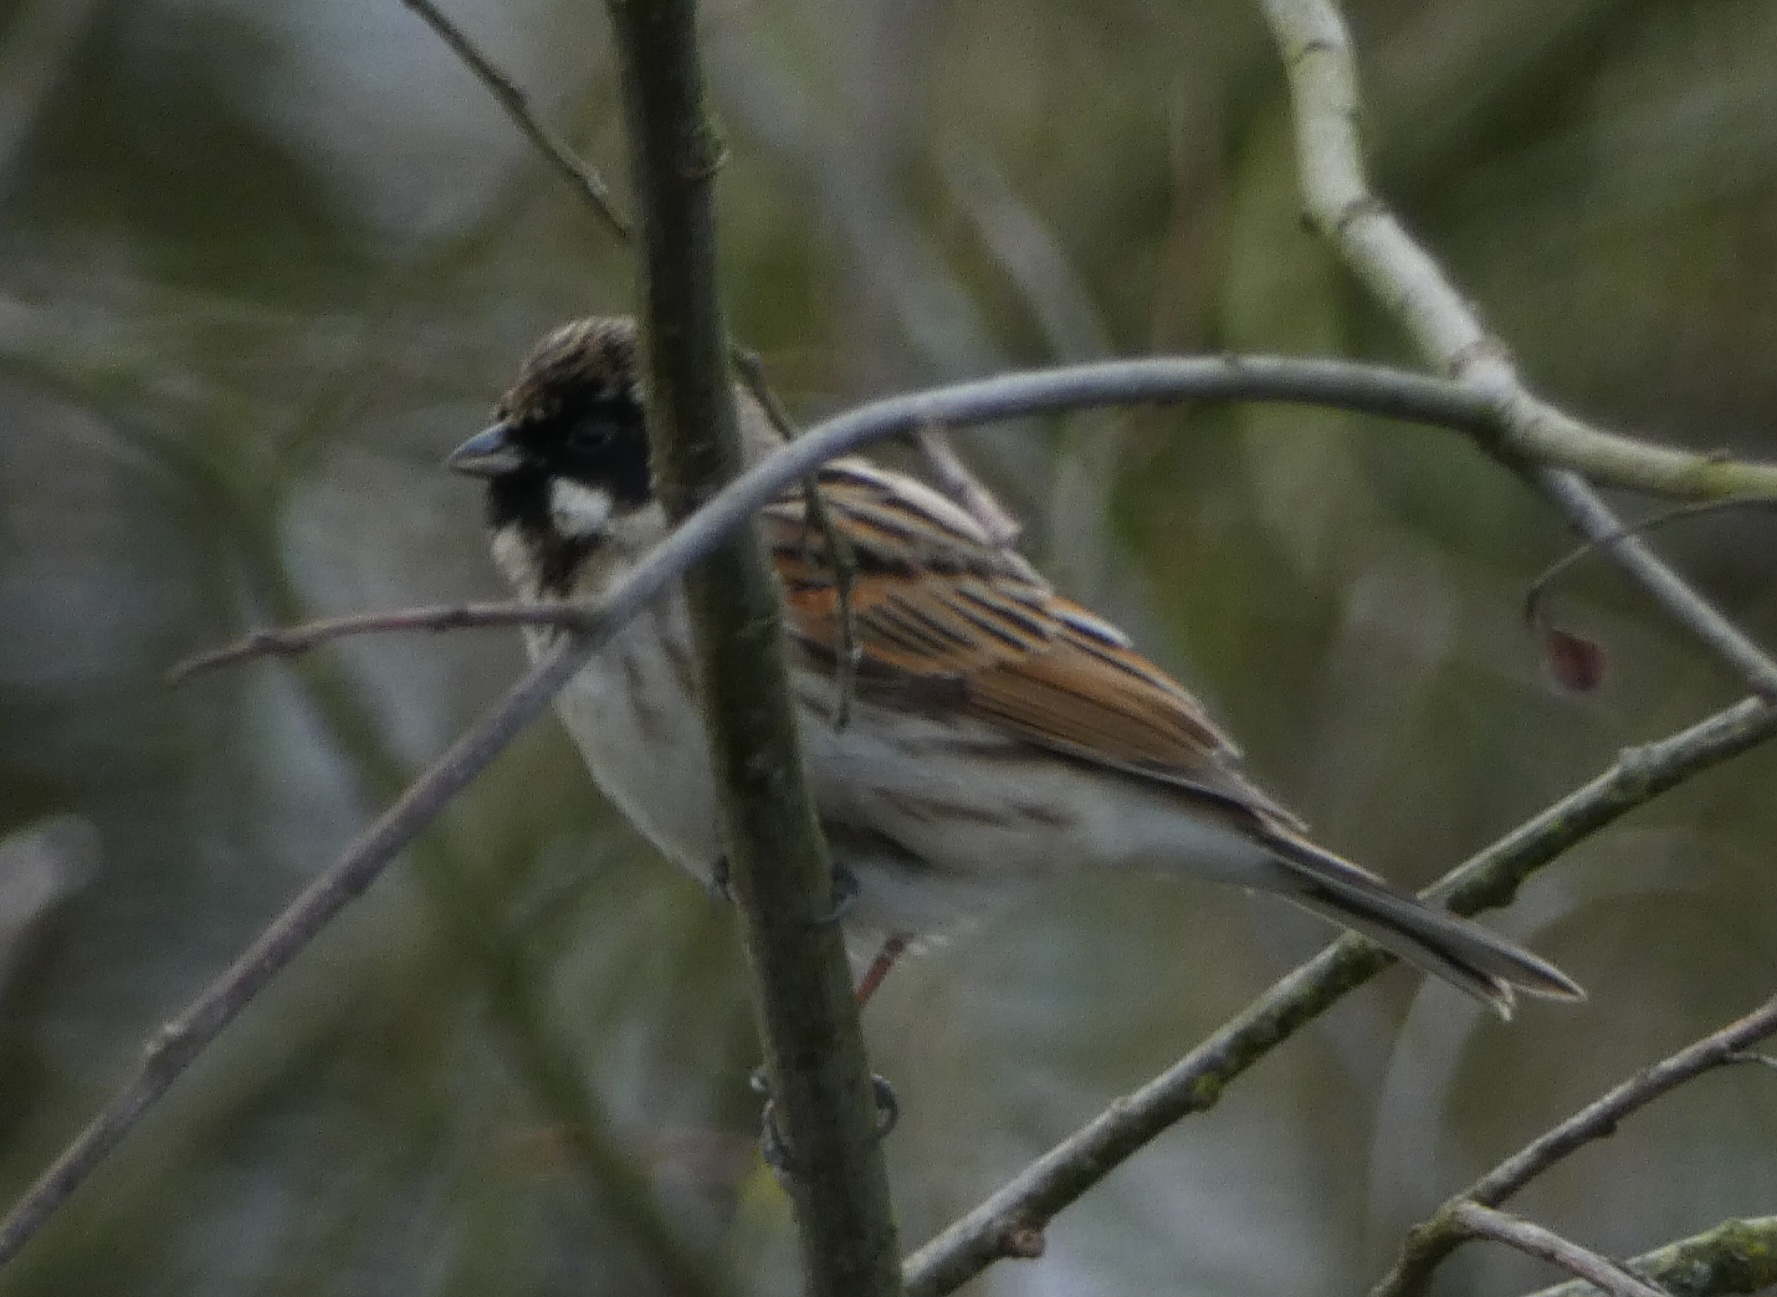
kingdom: Animalia
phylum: Chordata
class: Aves
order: Passeriformes
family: Emberizidae
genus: Emberiza
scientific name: Emberiza schoeniclus
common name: Rørspurv
